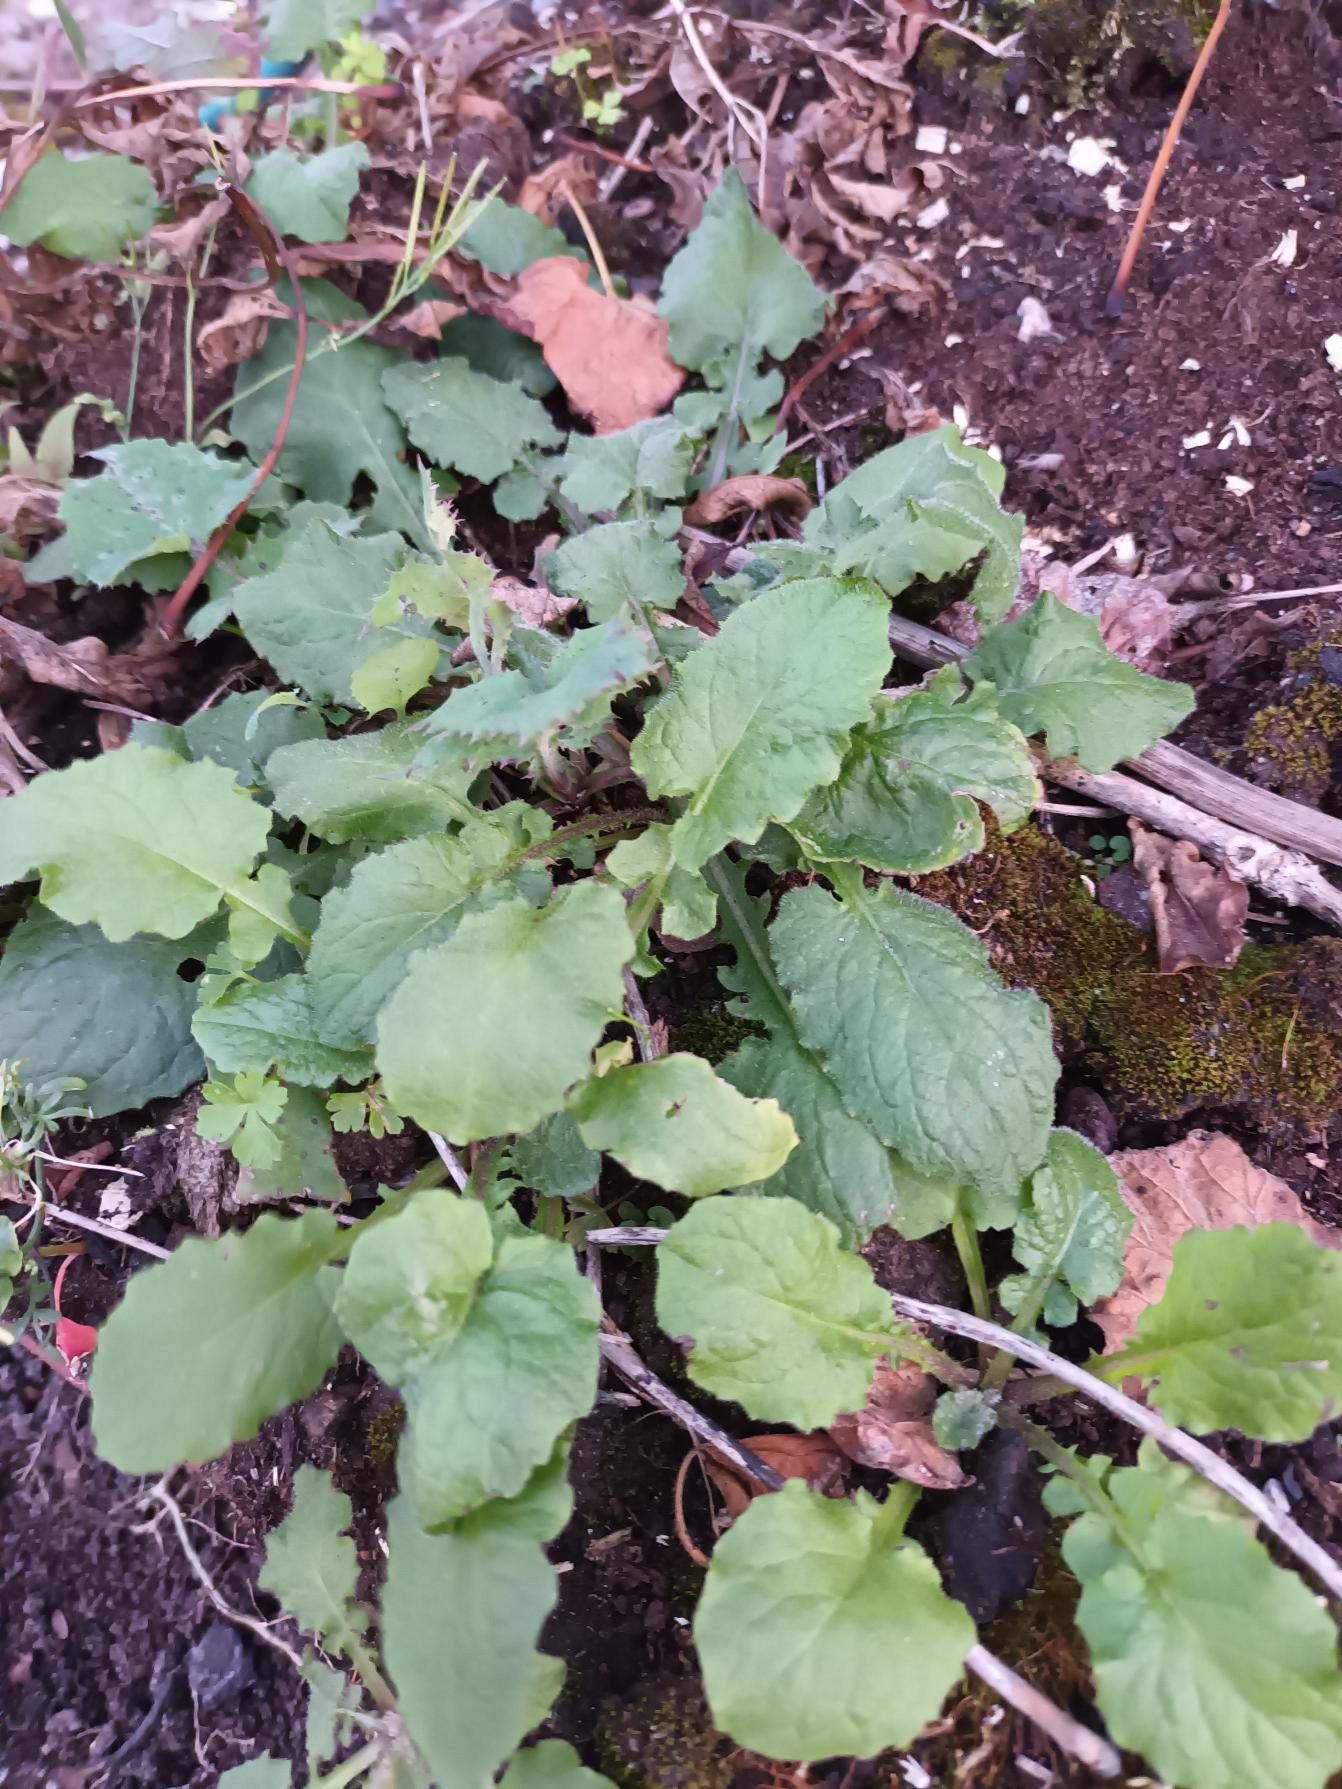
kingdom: Plantae
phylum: Tracheophyta
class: Magnoliopsida
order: Asterales
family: Asteraceae
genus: Lapsana
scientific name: Lapsana communis
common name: Haremad
